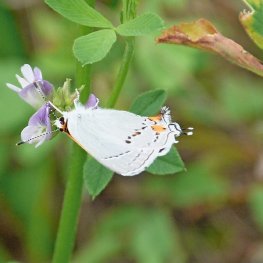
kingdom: Animalia
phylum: Arthropoda
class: Insecta
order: Lepidoptera
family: Lycaenidae
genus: Strymon
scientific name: Strymon melinus
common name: Gray Hairstreak
